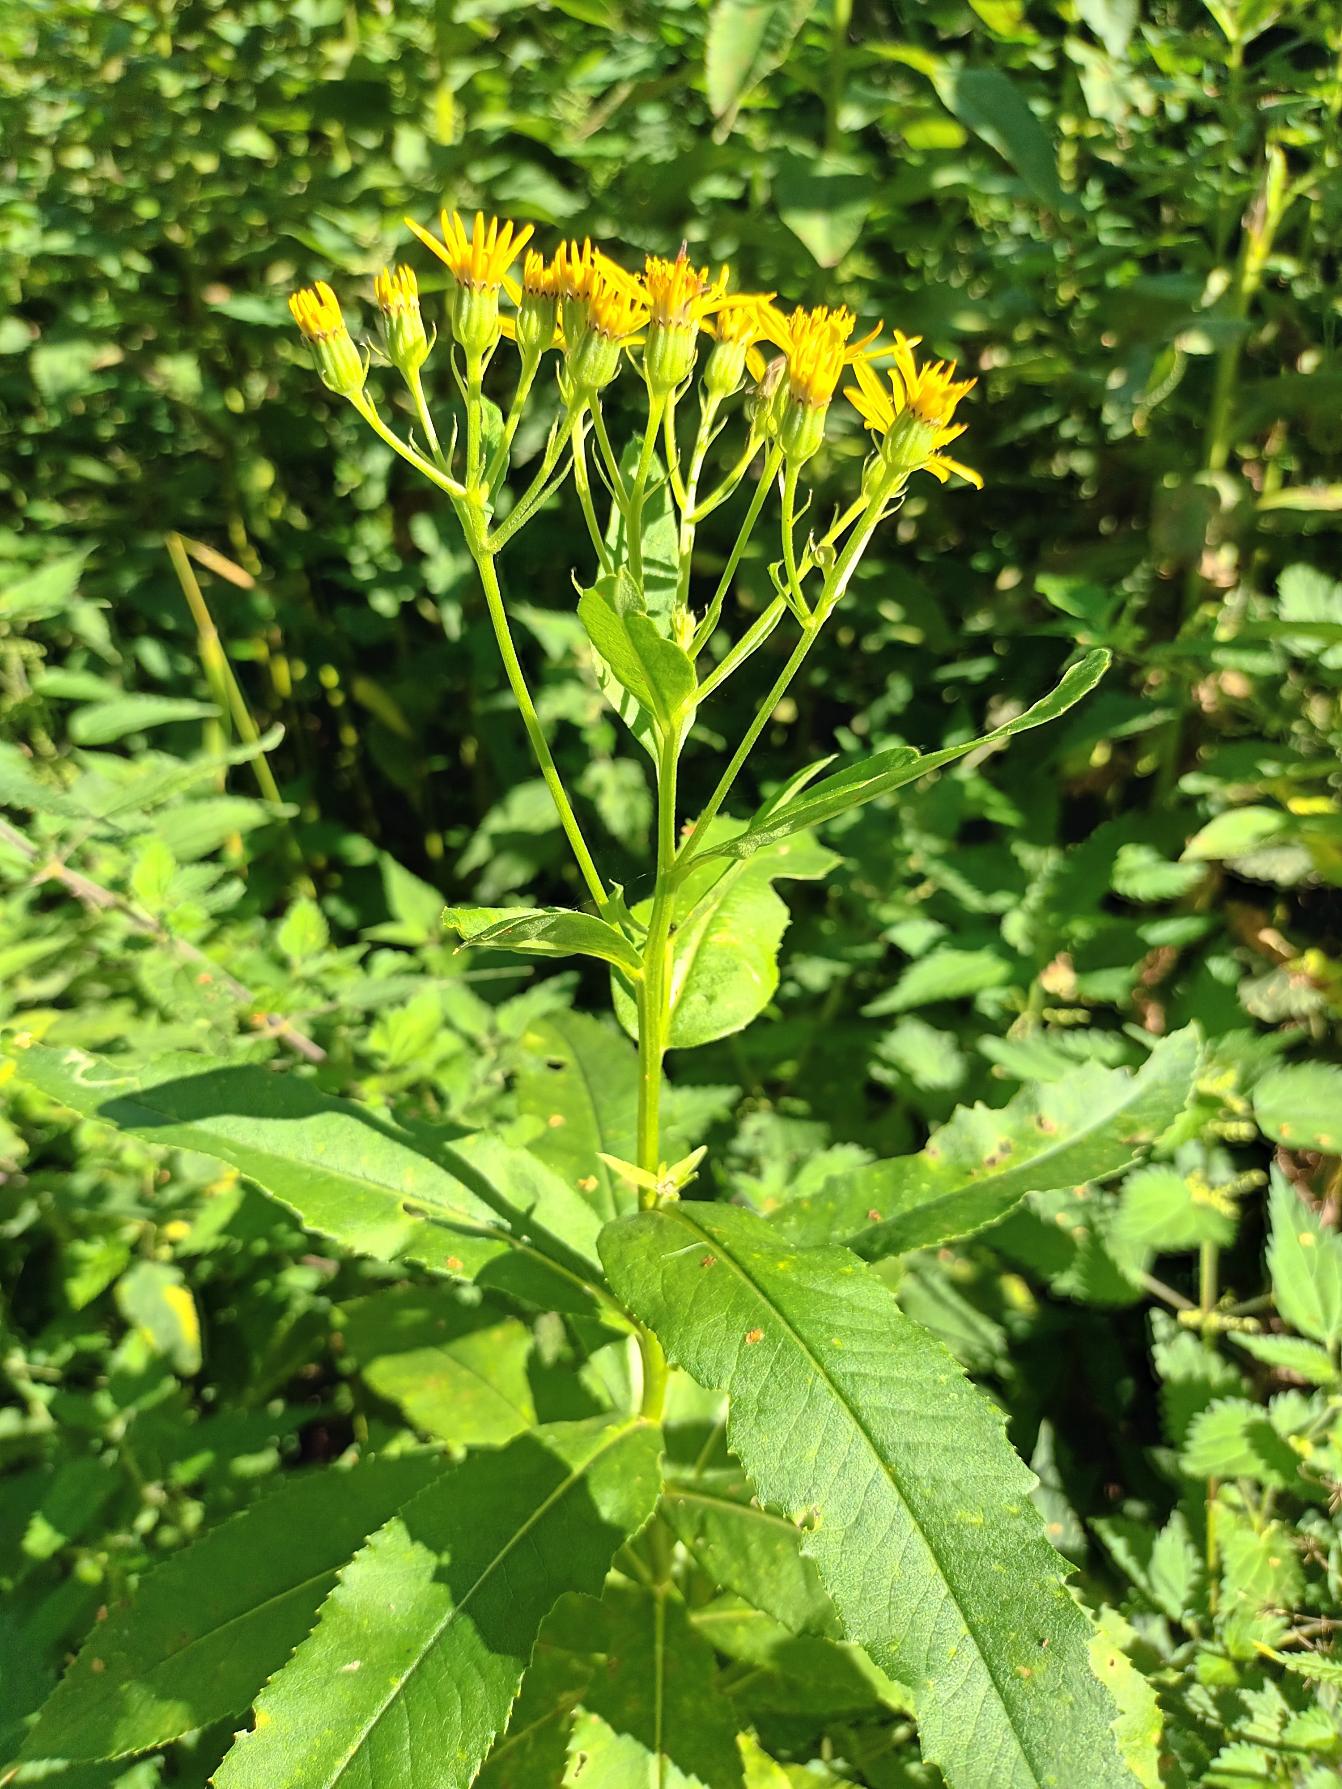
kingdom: Plantae
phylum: Tracheophyta
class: Magnoliopsida
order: Asterales
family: Asteraceae
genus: Senecio
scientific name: Senecio sarracenicus
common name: Saracenisk brandbæger
